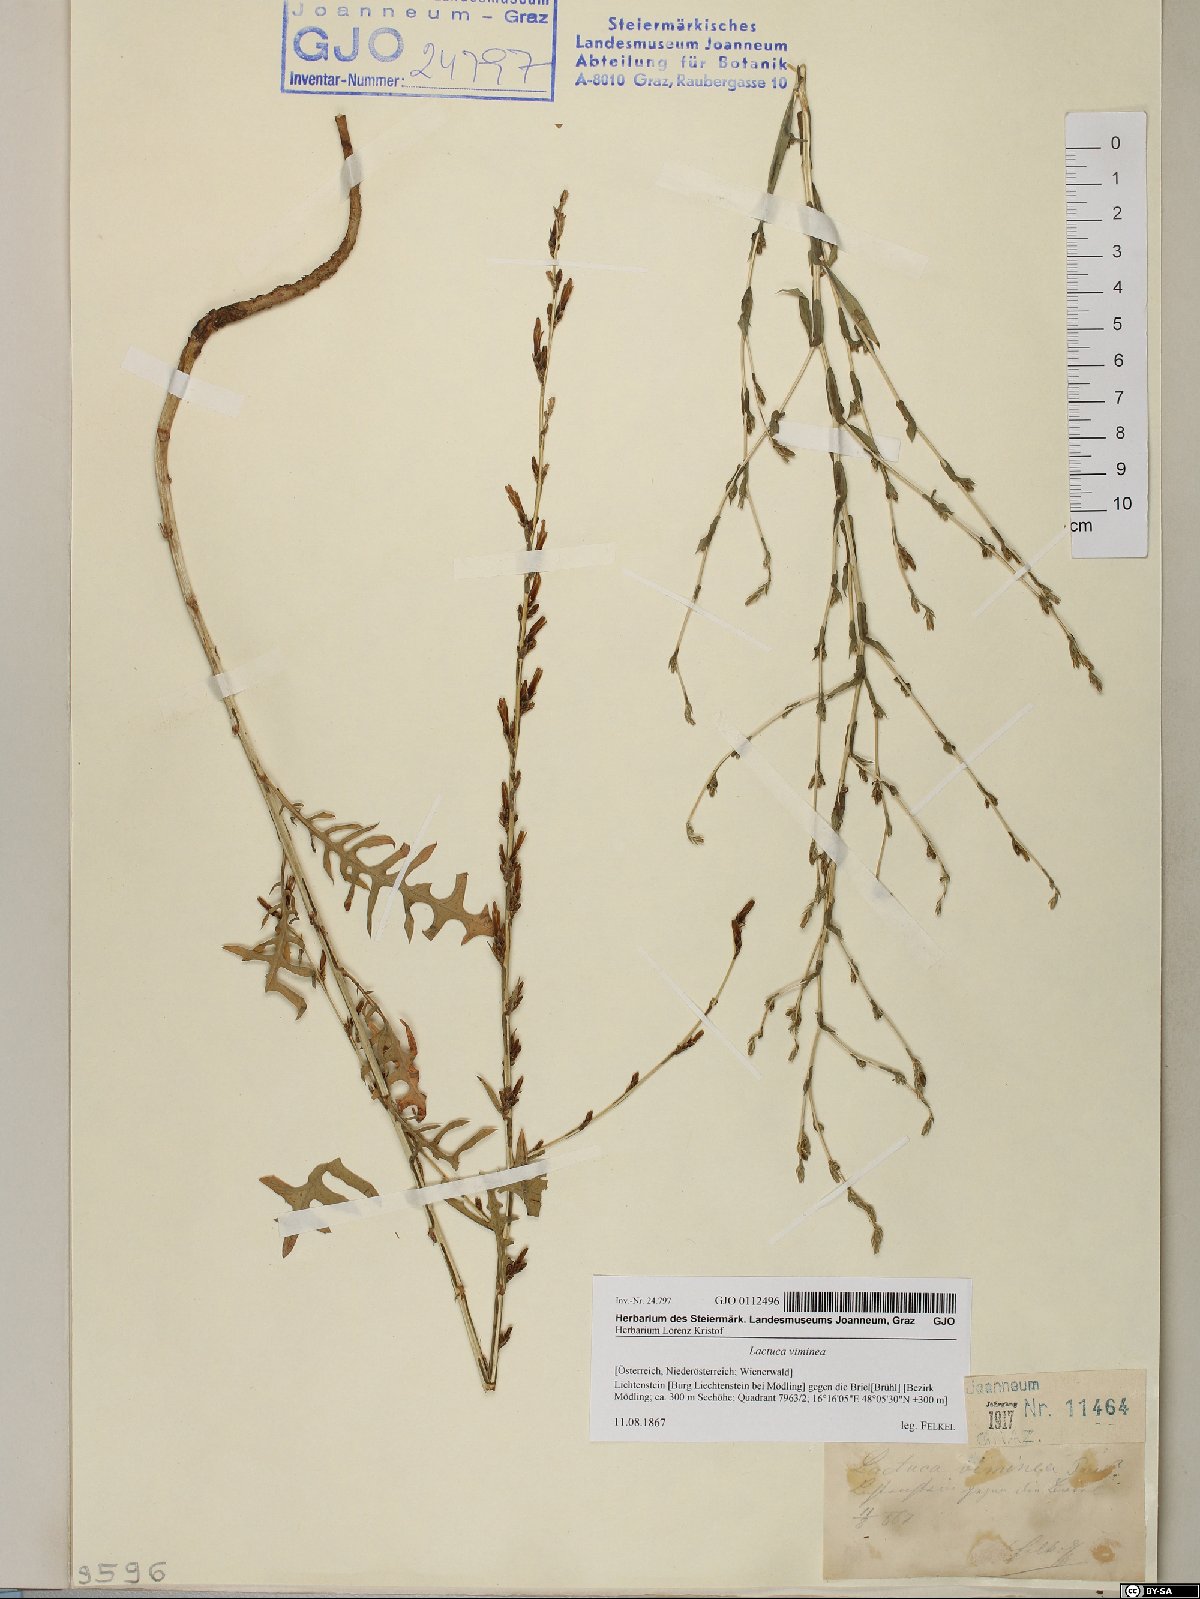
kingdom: Plantae
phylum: Tracheophyta
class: Magnoliopsida
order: Asterales
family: Asteraceae
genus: Lactuca
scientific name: Lactuca viminea
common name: Pliant lettuce
